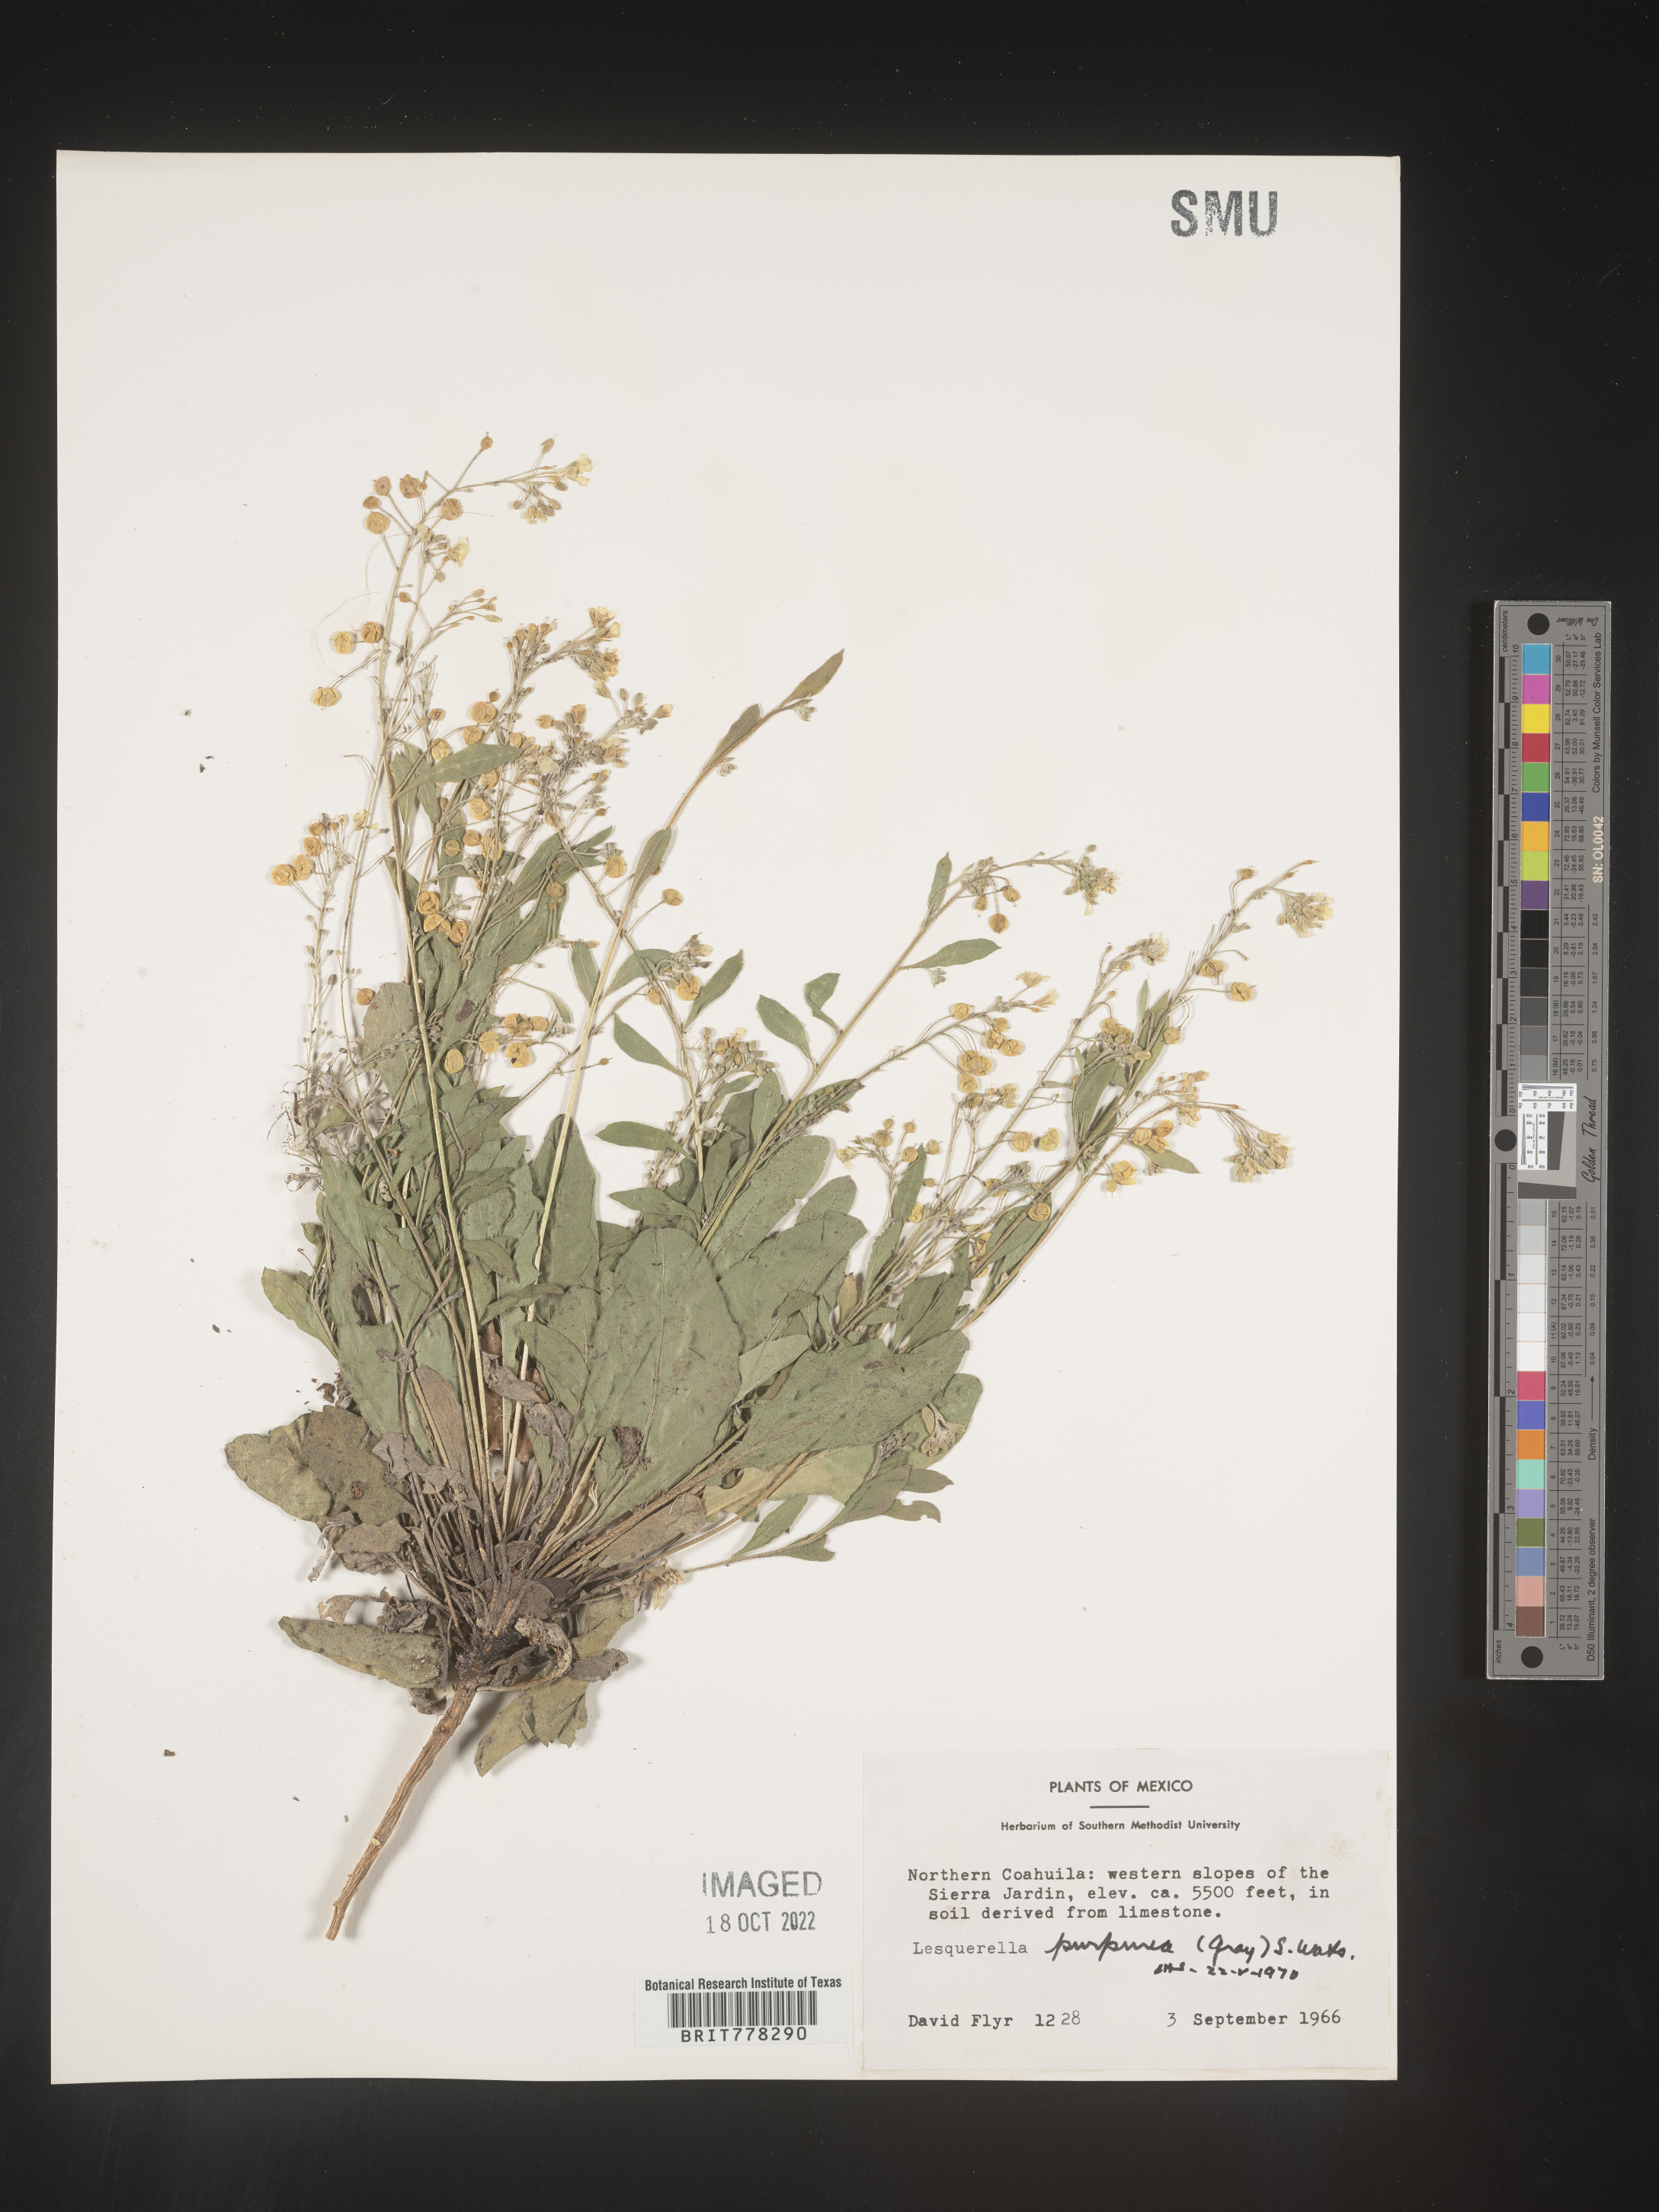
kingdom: Chromista
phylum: Cercozoa
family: Psammonobiotidae
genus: Lesquerella
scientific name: Lesquerella
